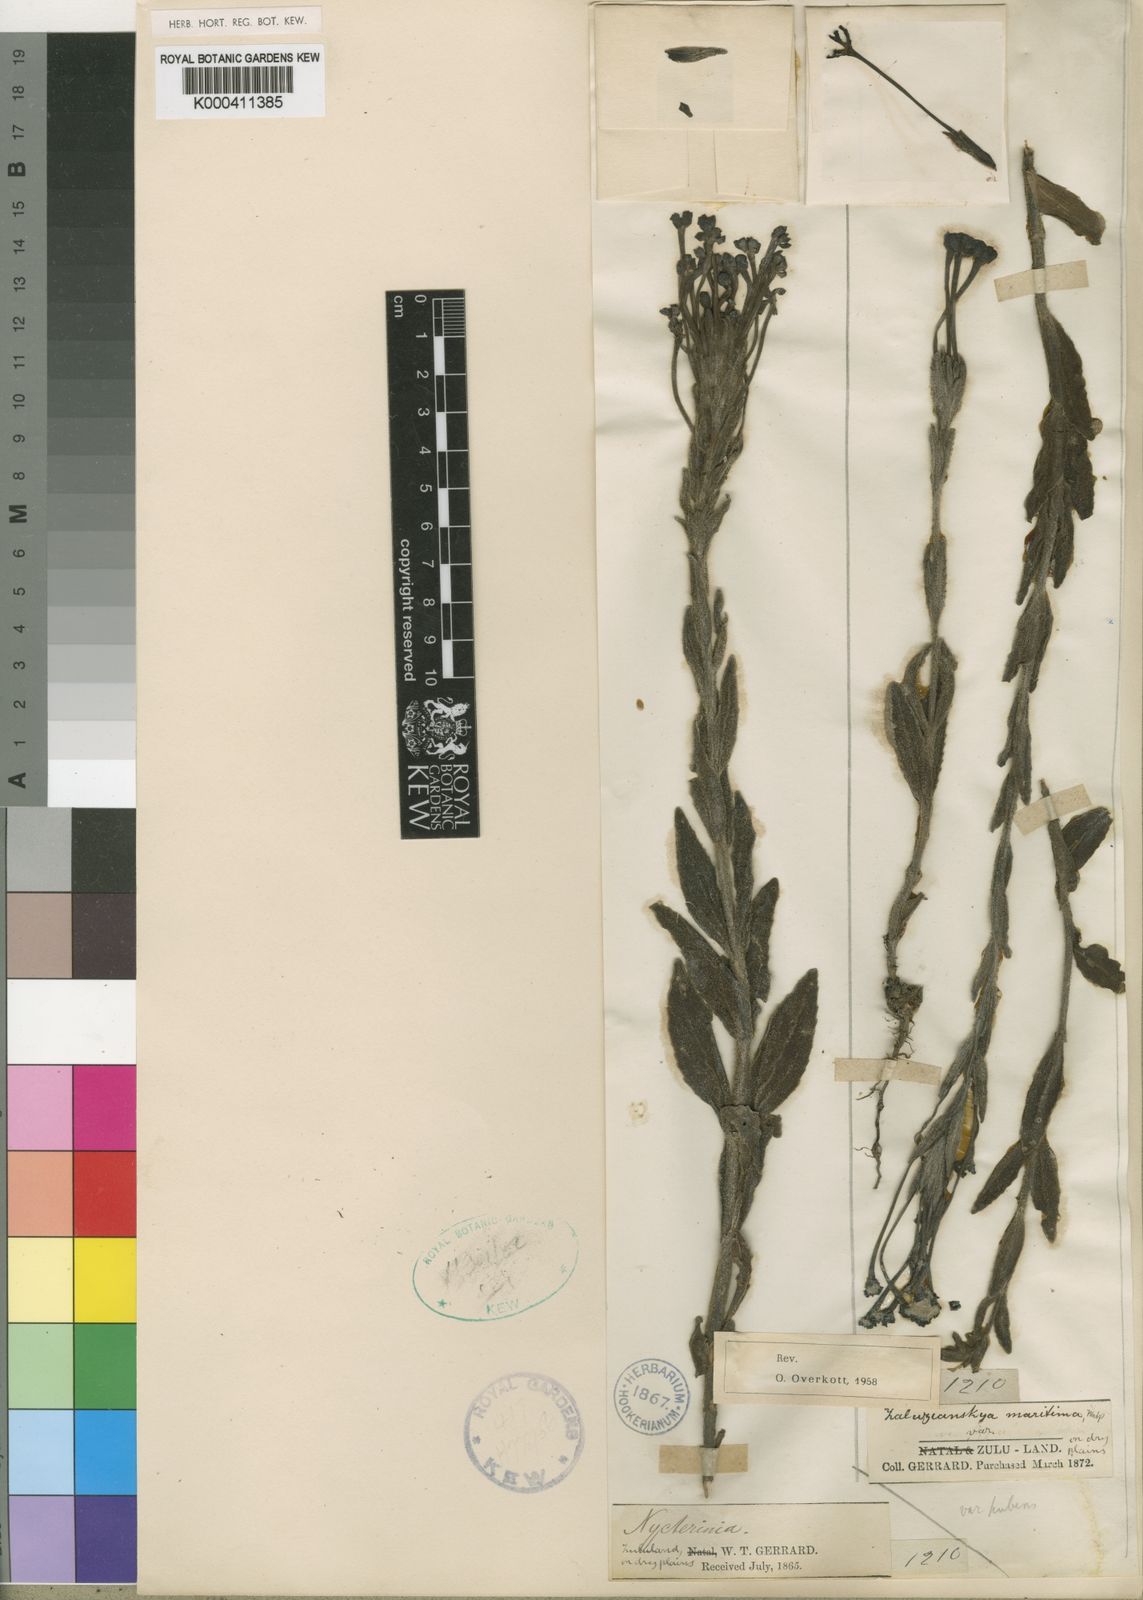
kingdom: Plantae
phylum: Tracheophyta
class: Magnoliopsida
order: Lamiales
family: Scrophulariaceae
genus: Zaluzianskya
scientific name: Zaluzianskya spathacea
